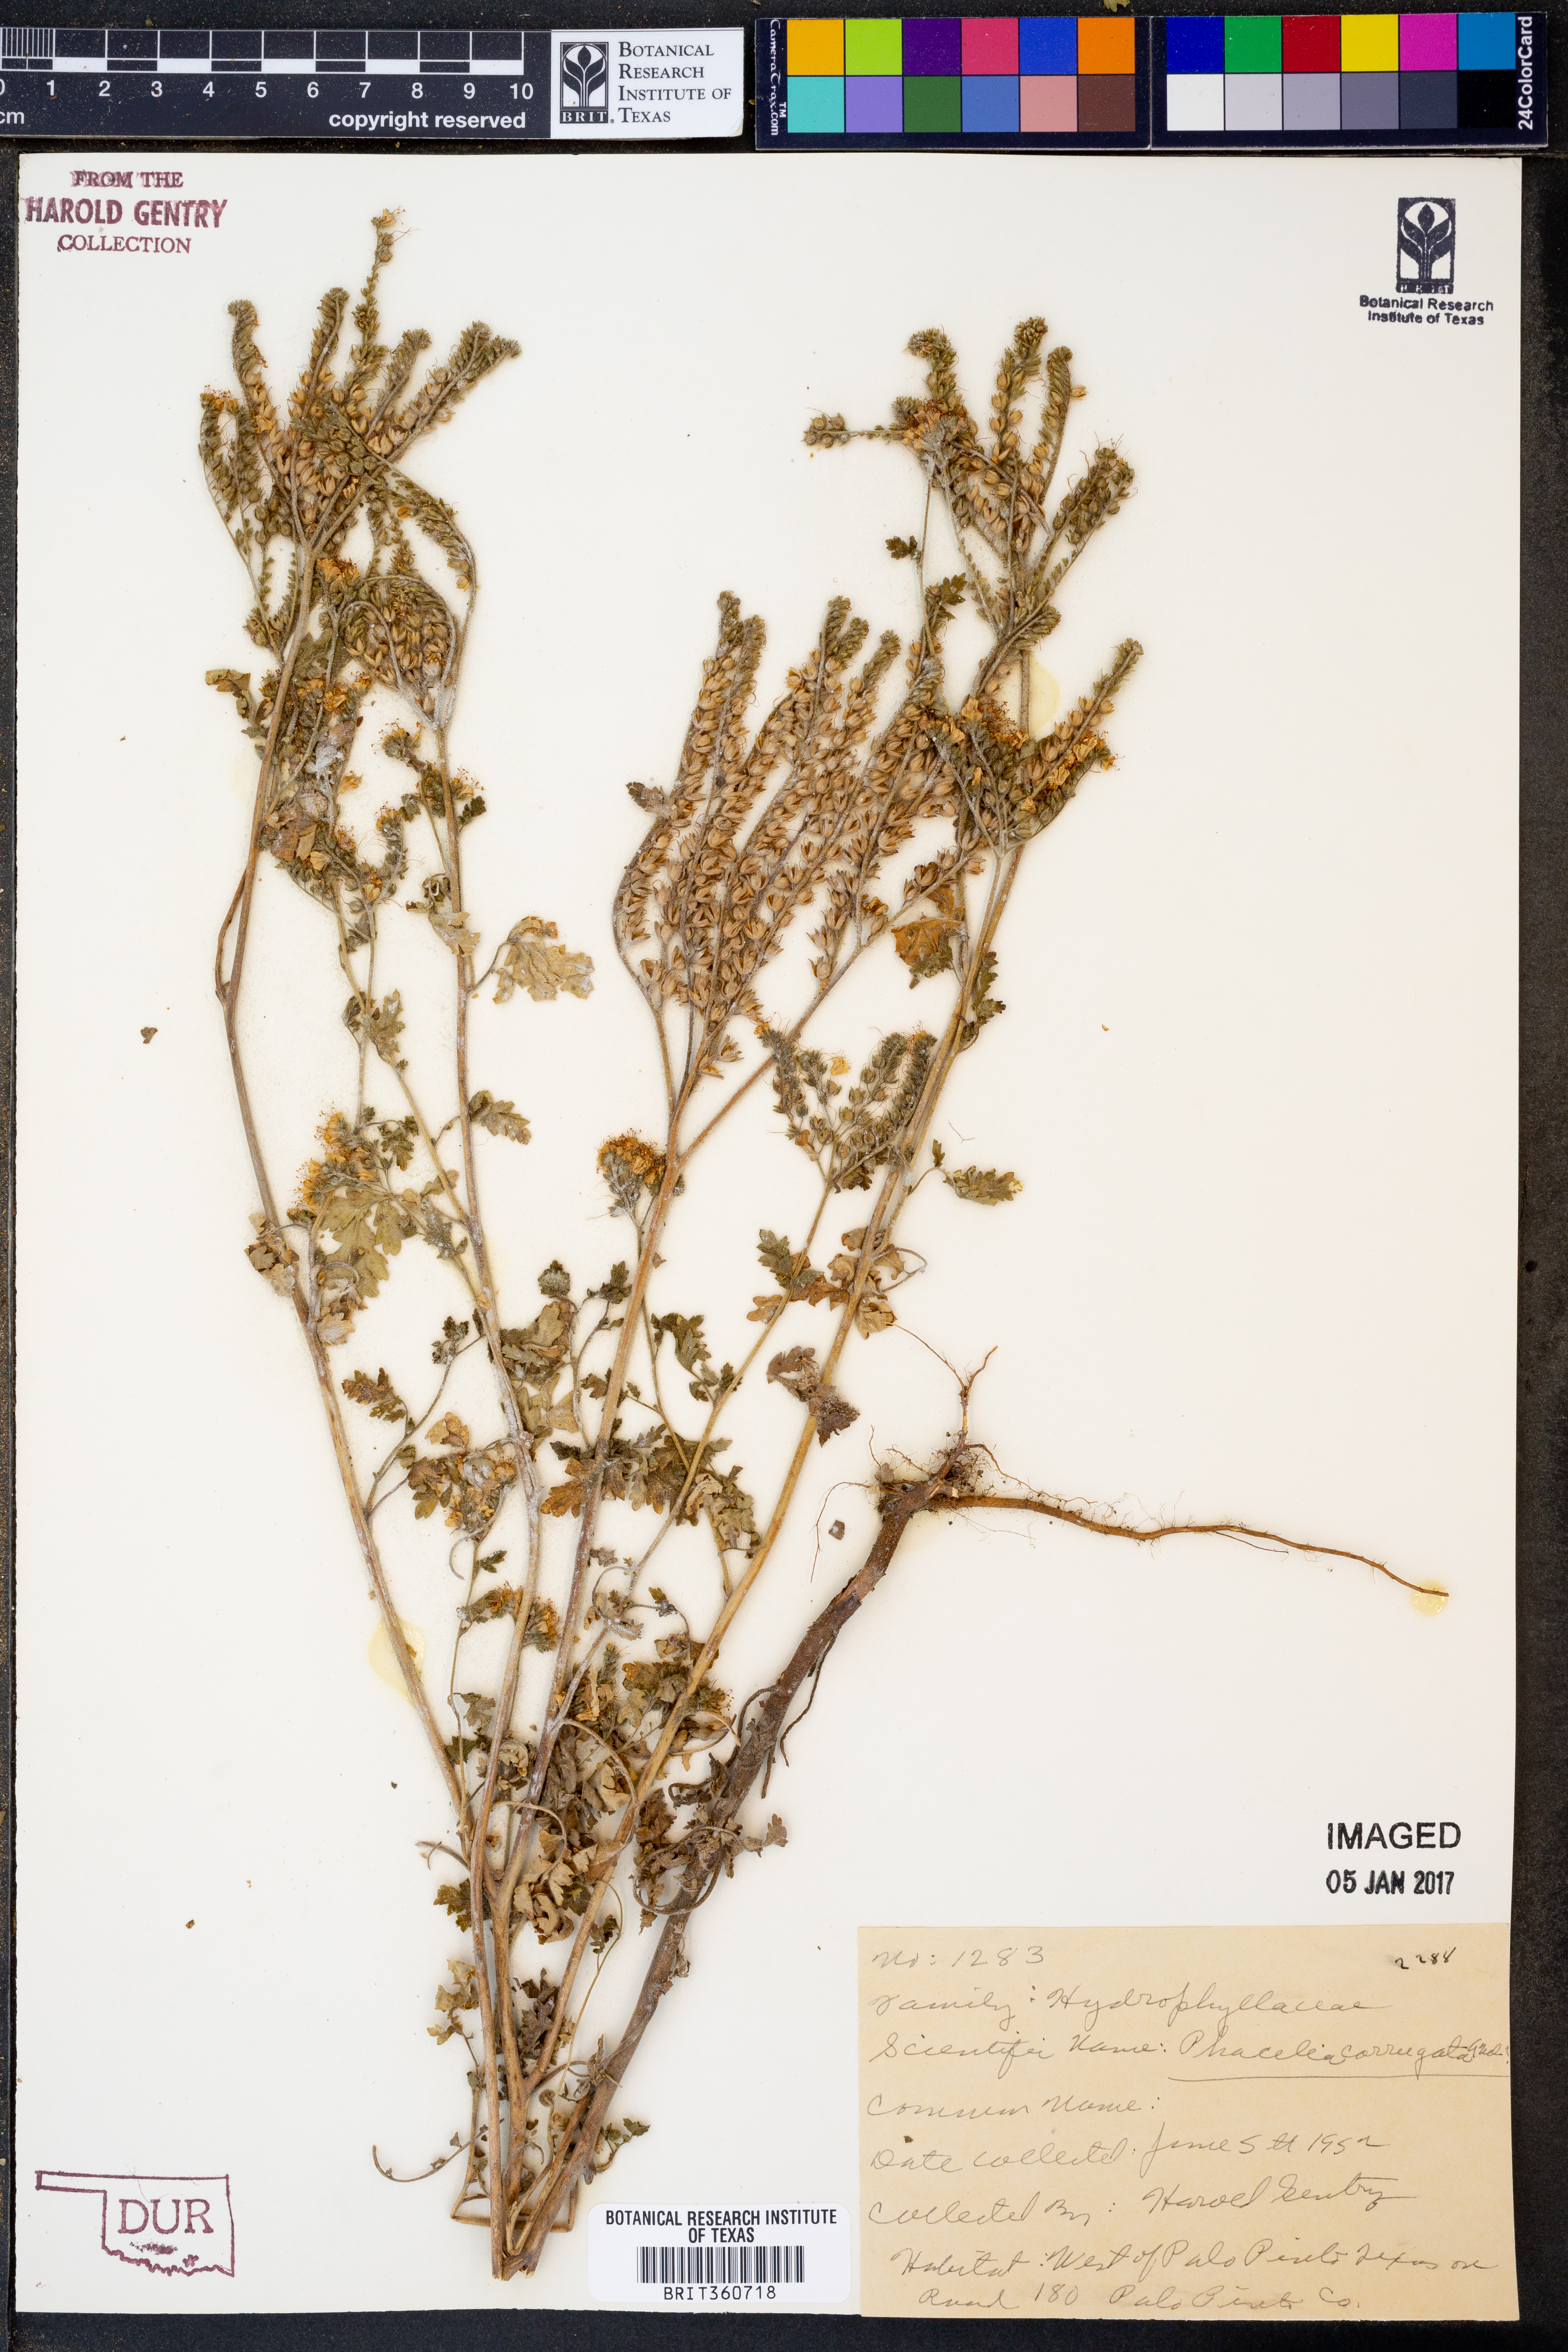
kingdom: Plantae
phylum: Tracheophyta
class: Magnoliopsida
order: Boraginales
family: Hydrophyllaceae
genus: Phacelia
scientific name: Phacelia corrugata
